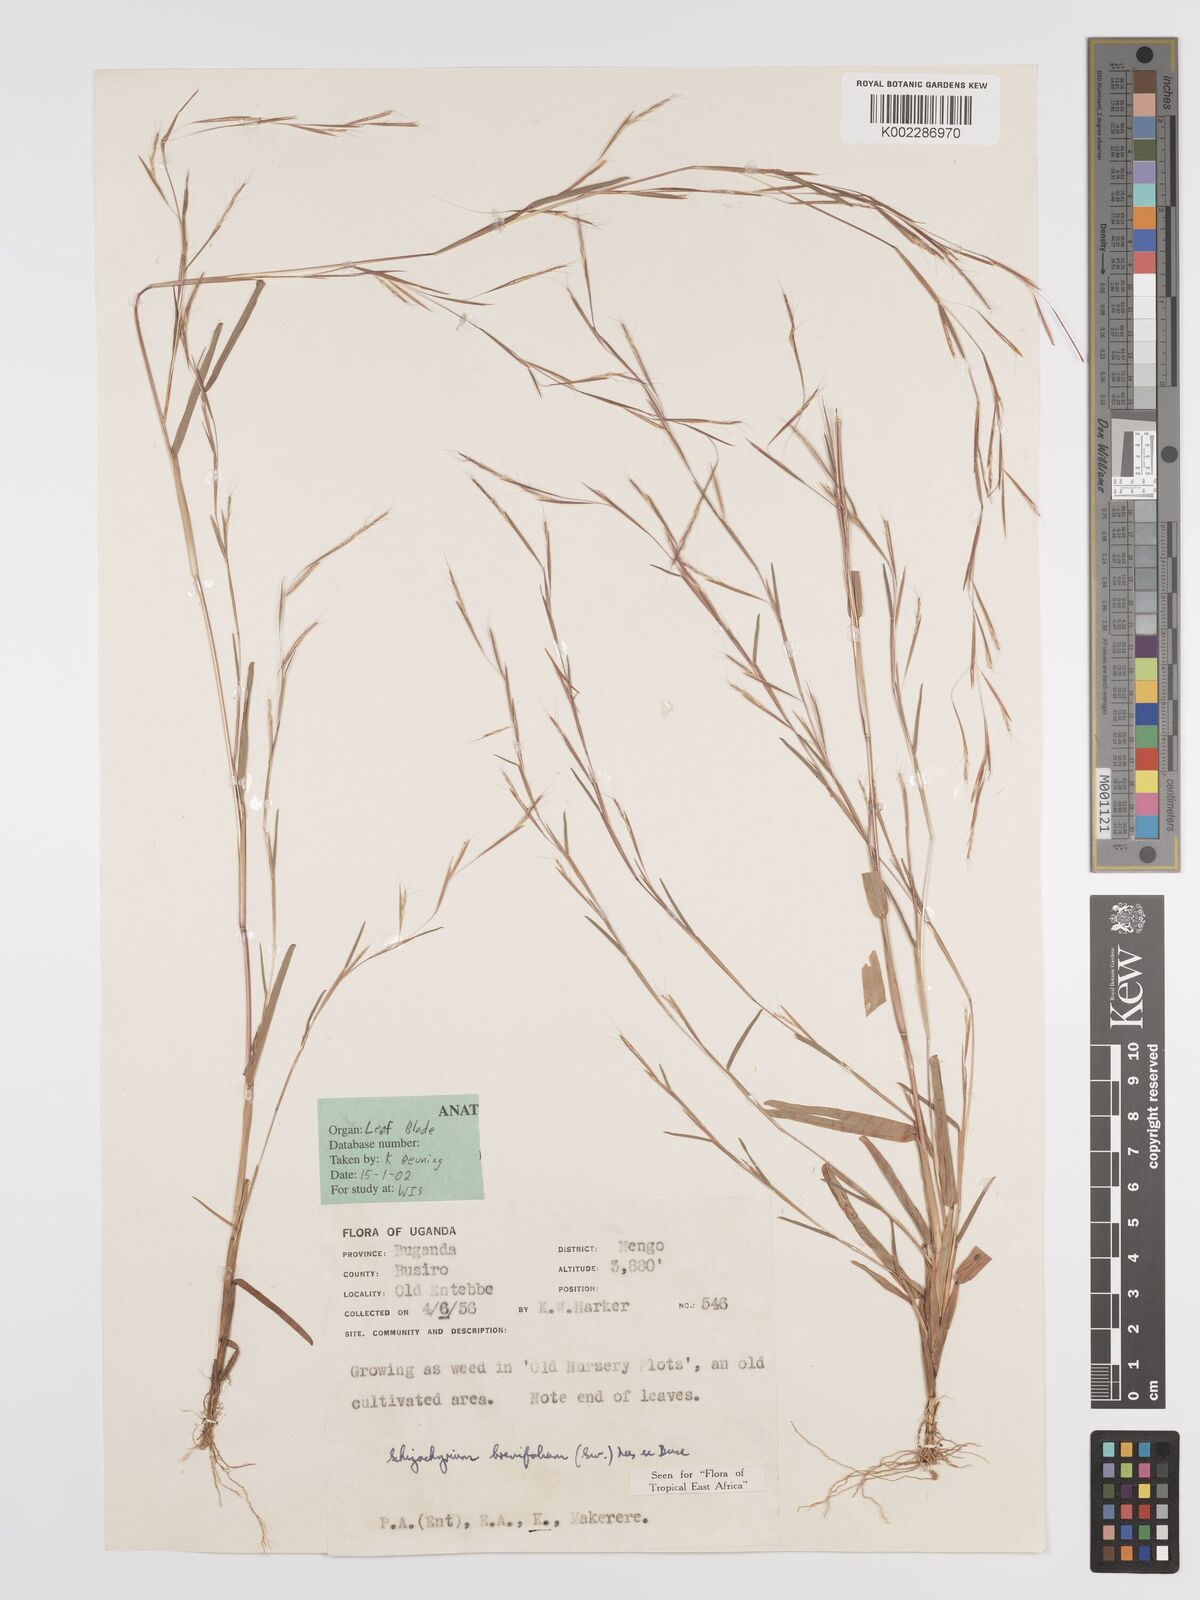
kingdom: Plantae
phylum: Tracheophyta
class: Liliopsida
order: Poales
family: Poaceae
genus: Schizachyrium
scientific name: Schizachyrium brevifolium
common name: Serillo dulce
